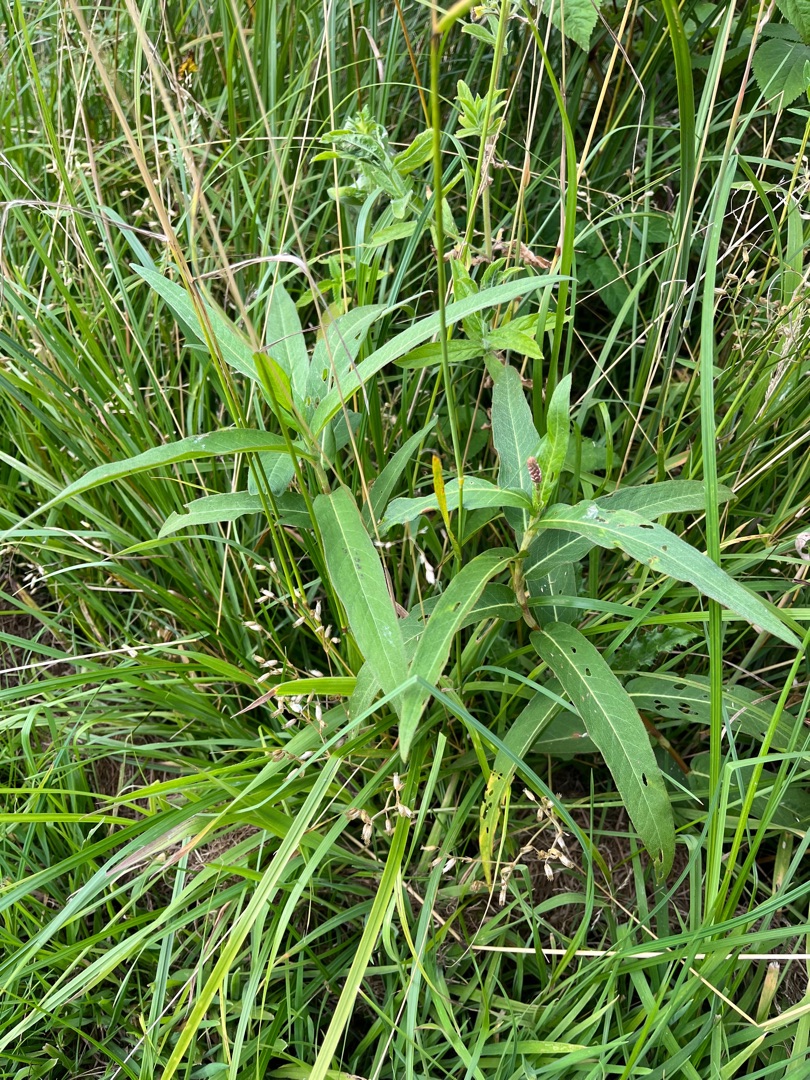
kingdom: Plantae
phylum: Tracheophyta
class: Magnoliopsida
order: Caryophyllales
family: Polygonaceae
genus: Persicaria
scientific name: Persicaria amphibia
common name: Vand-pileurt
